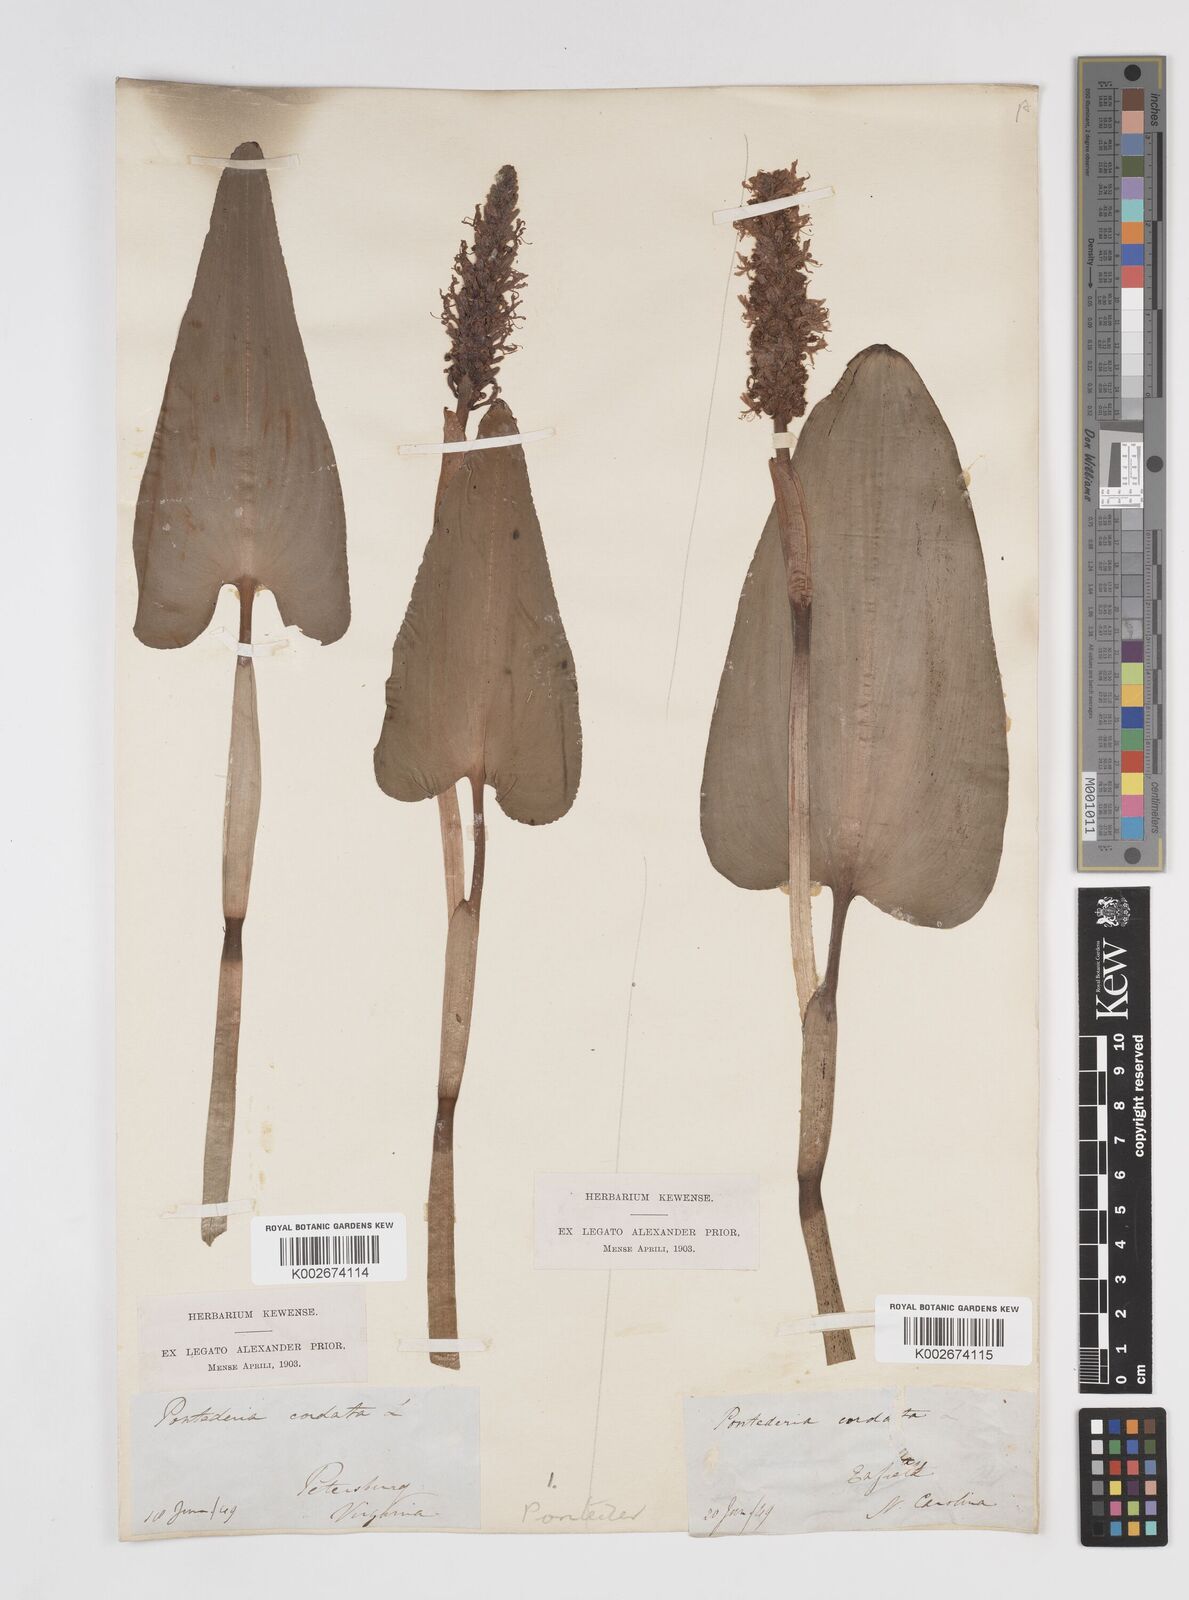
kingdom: Plantae
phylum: Tracheophyta
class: Liliopsida
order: Commelinales
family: Pontederiaceae
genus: Pontederia
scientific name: Pontederia cordata
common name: Pickerelweed
